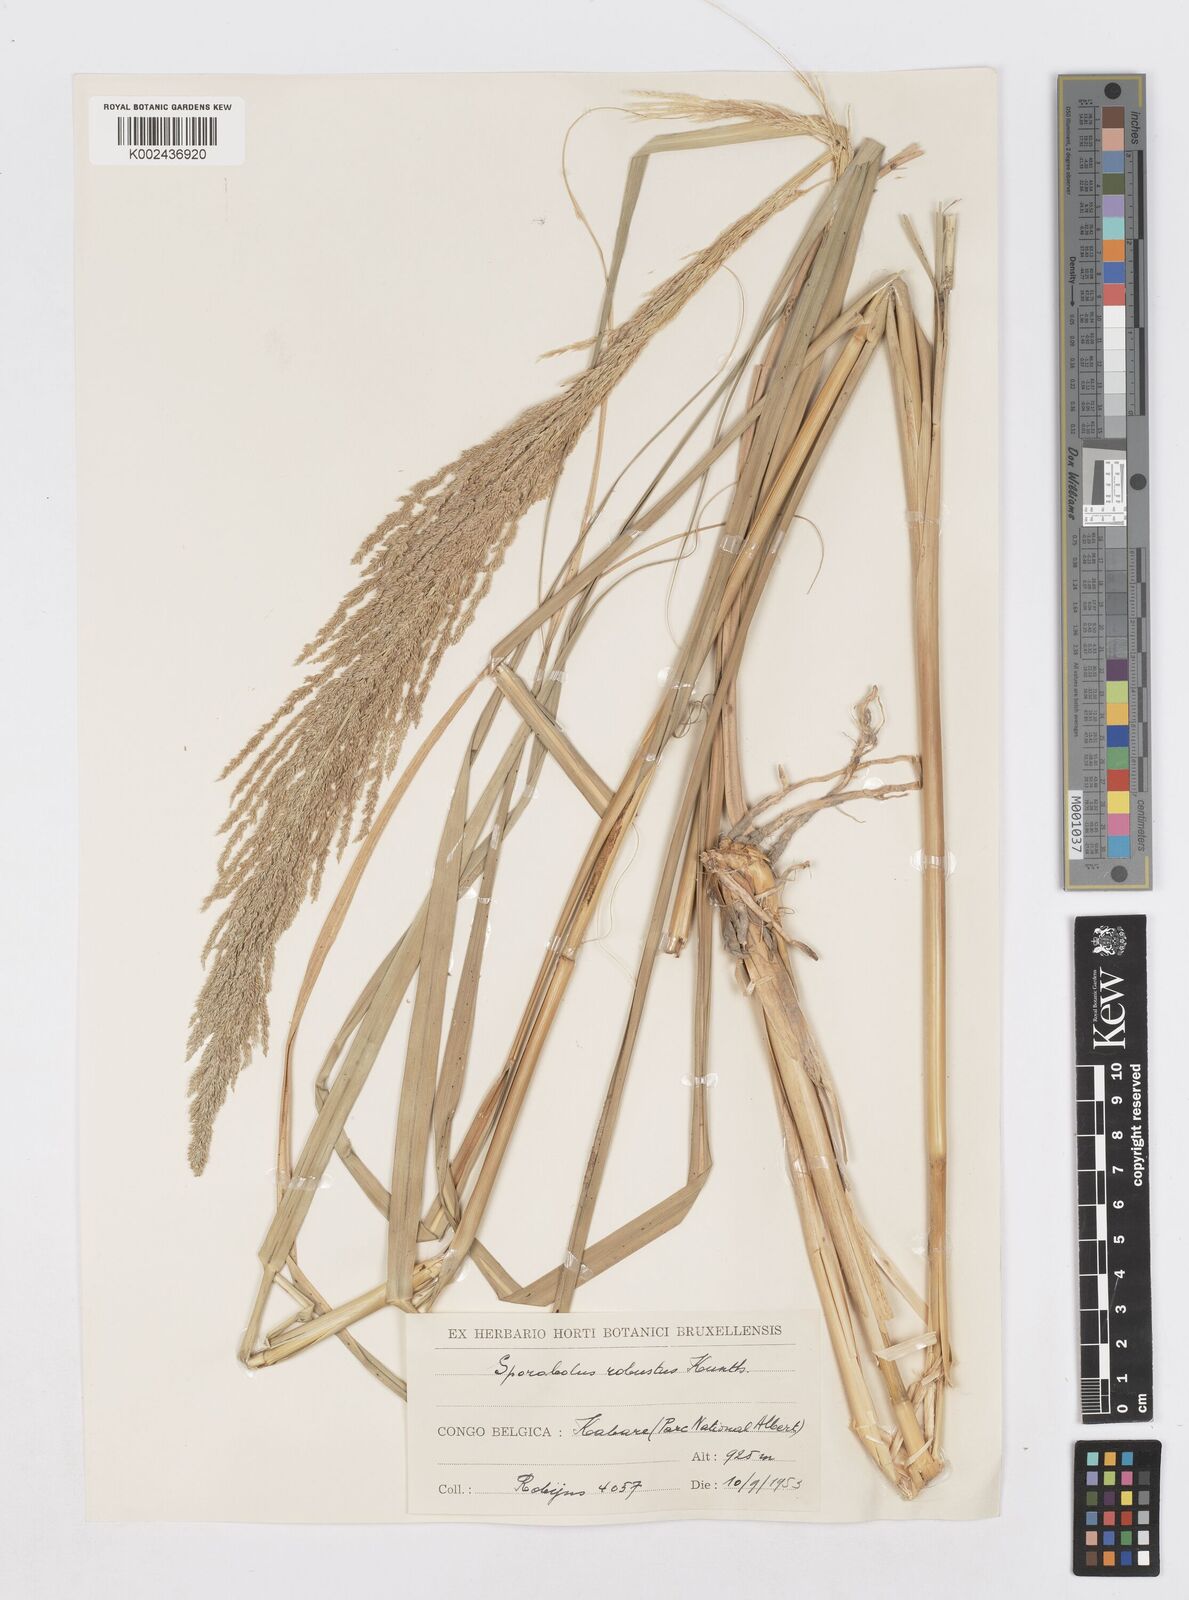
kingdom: Plantae
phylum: Tracheophyta
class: Liliopsida
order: Poales
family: Poaceae
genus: Sporobolus
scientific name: Sporobolus consimilis
